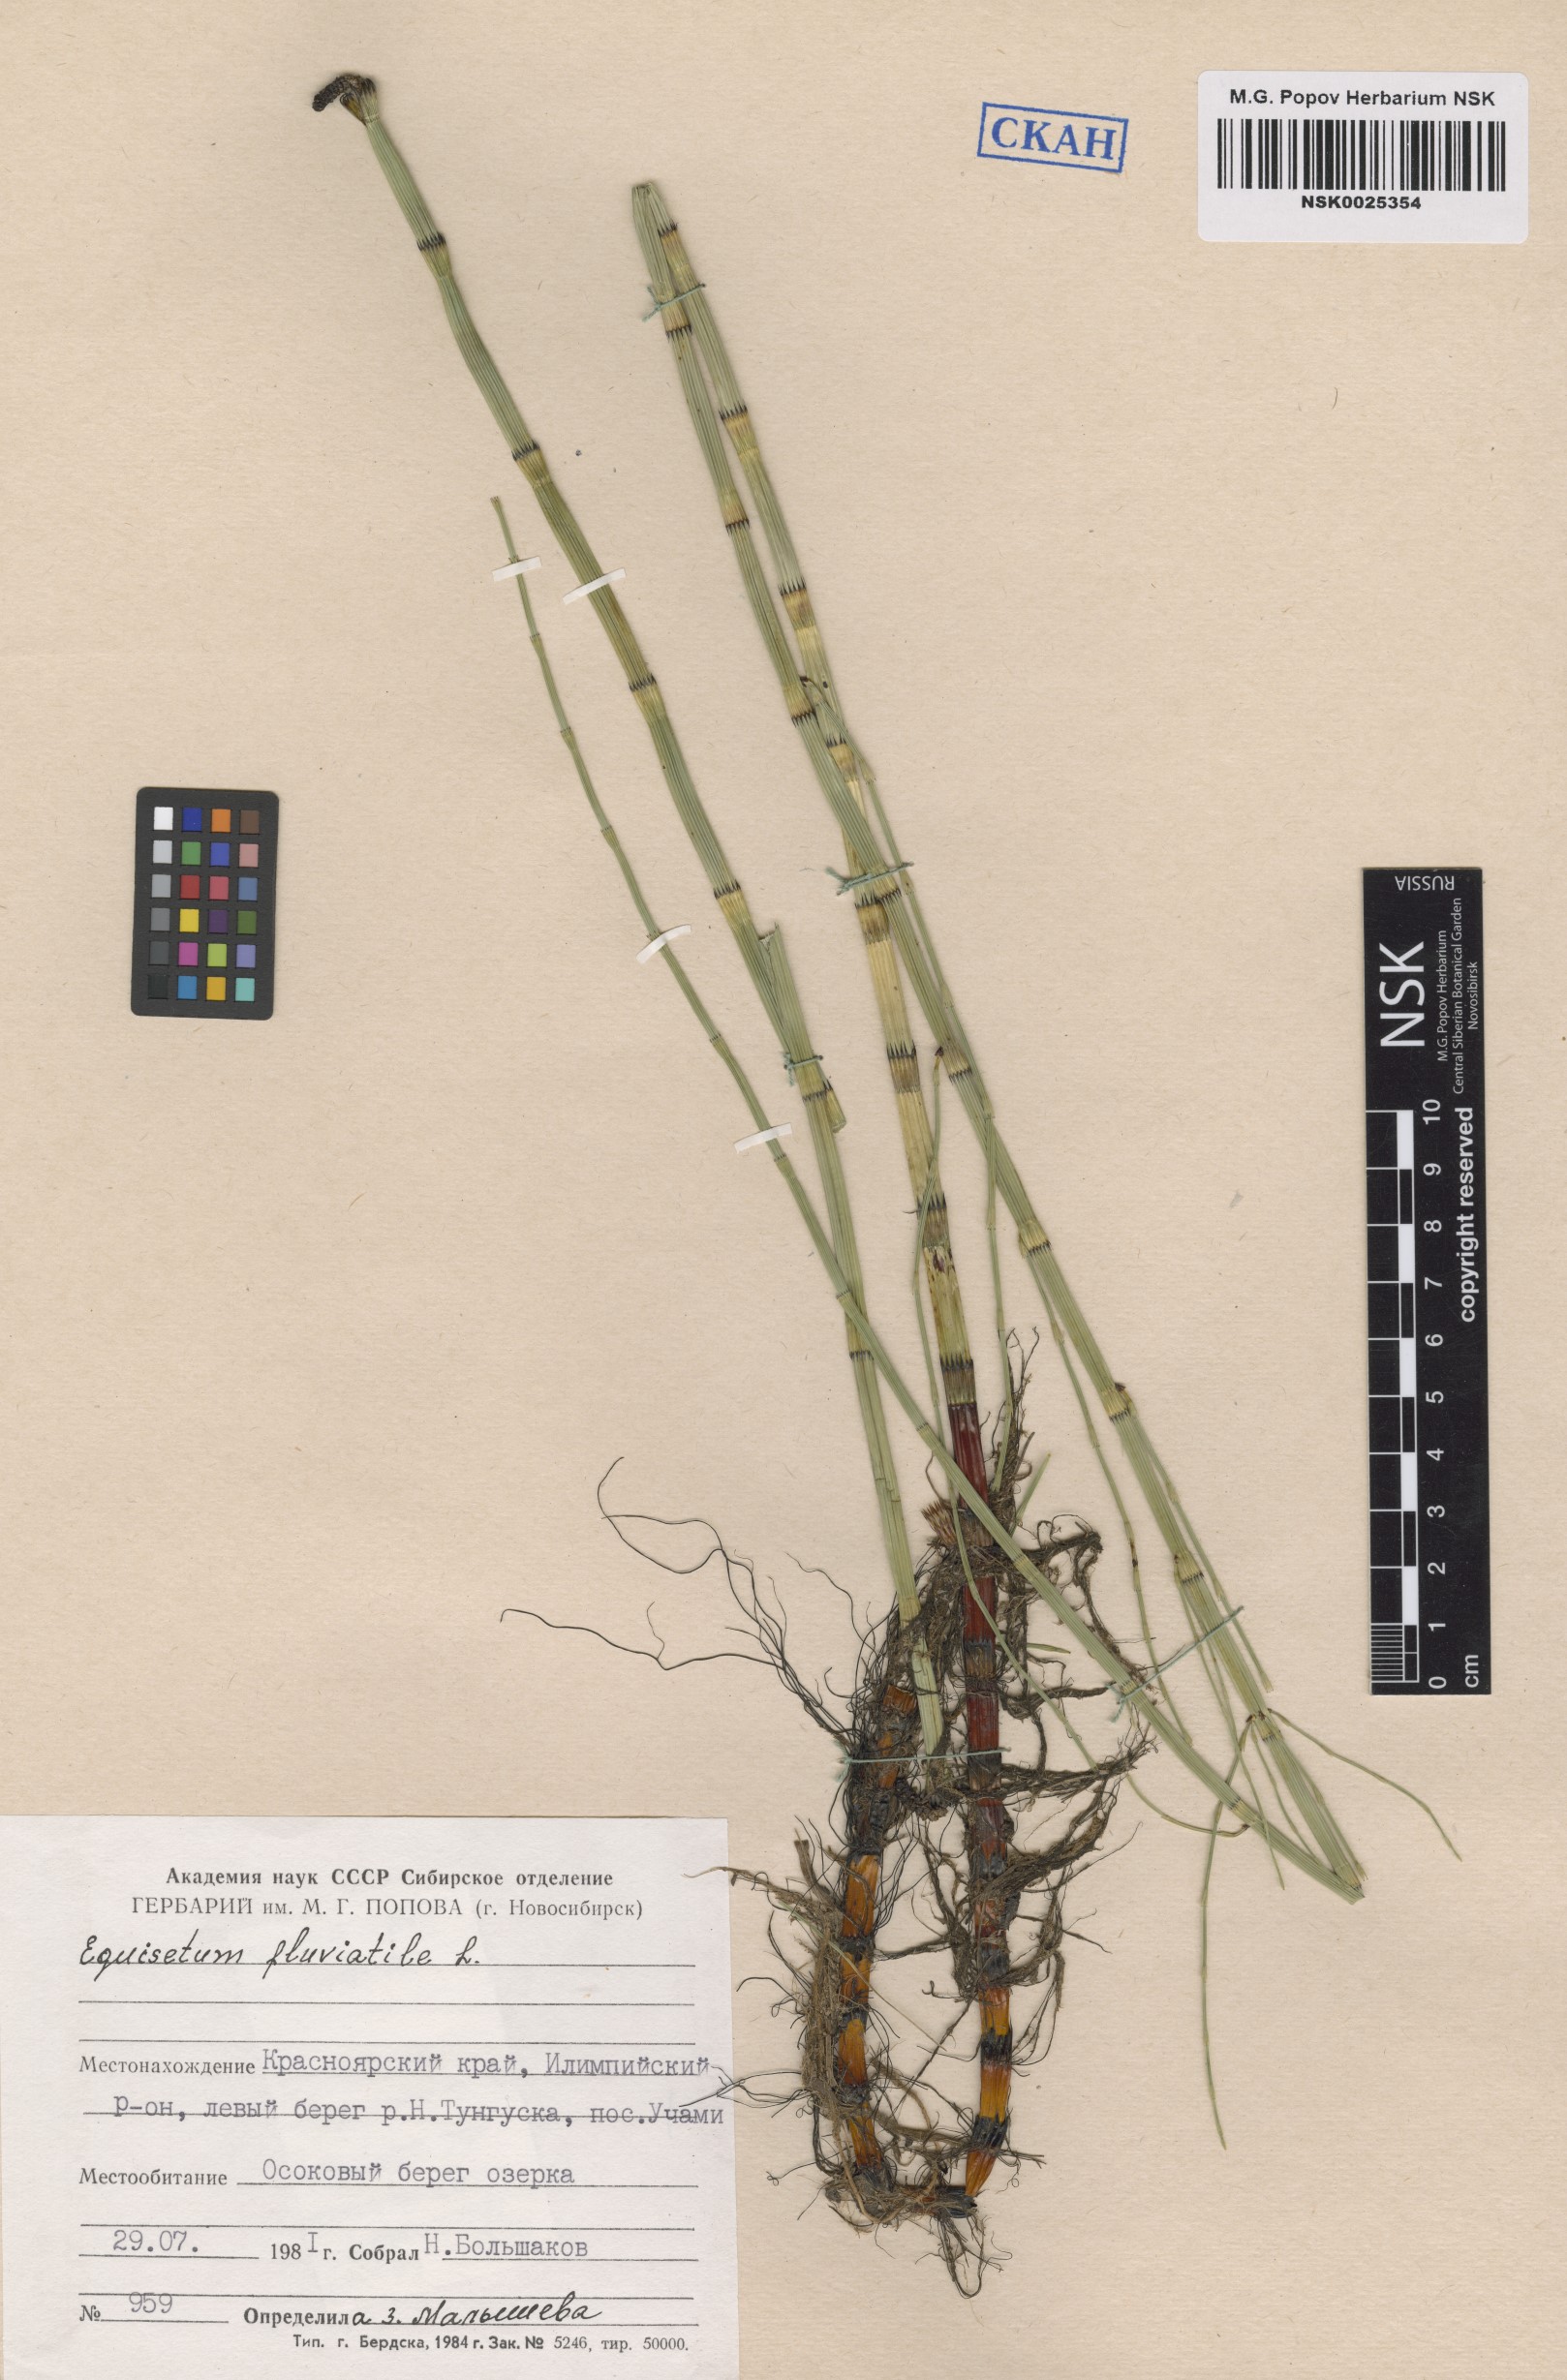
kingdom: Plantae
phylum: Tracheophyta
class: Polypodiopsida
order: Equisetales
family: Equisetaceae
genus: Equisetum
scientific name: Equisetum fluviatile
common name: Water horsetail
